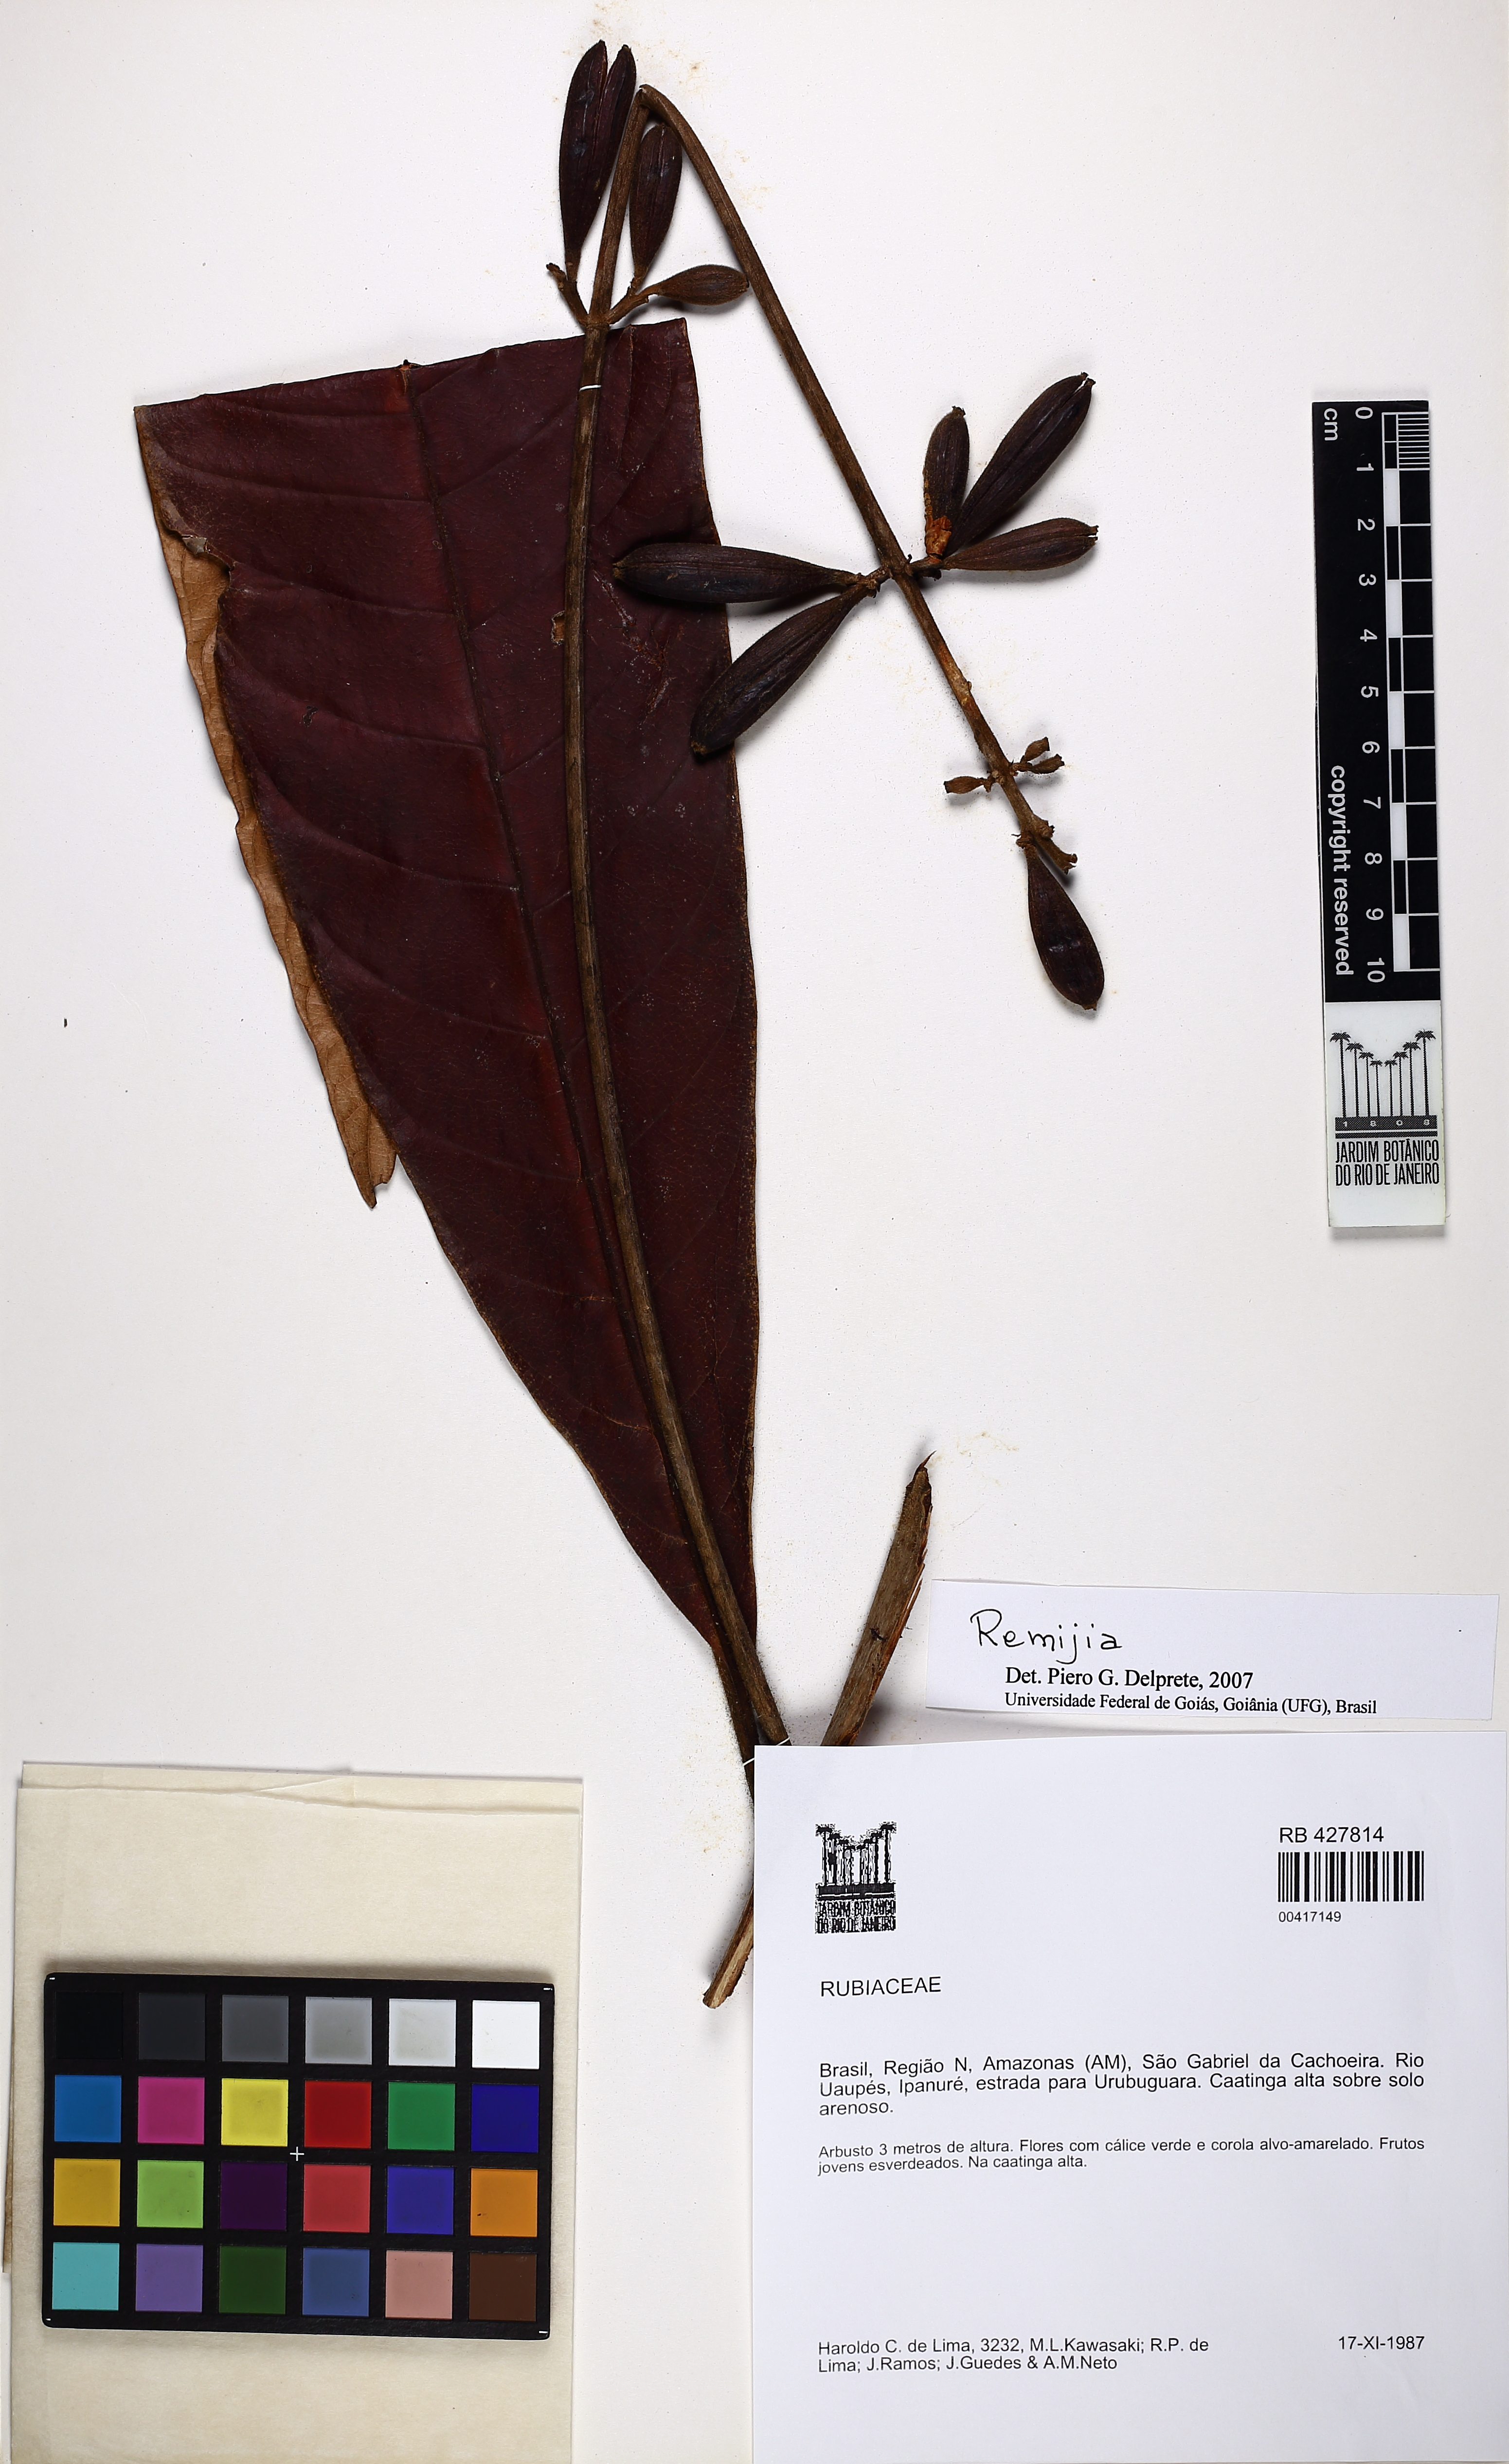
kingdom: Plantae
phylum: Tracheophyta
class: Magnoliopsida
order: Gentianales
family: Rubiaceae
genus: Remijia
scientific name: Remijia
